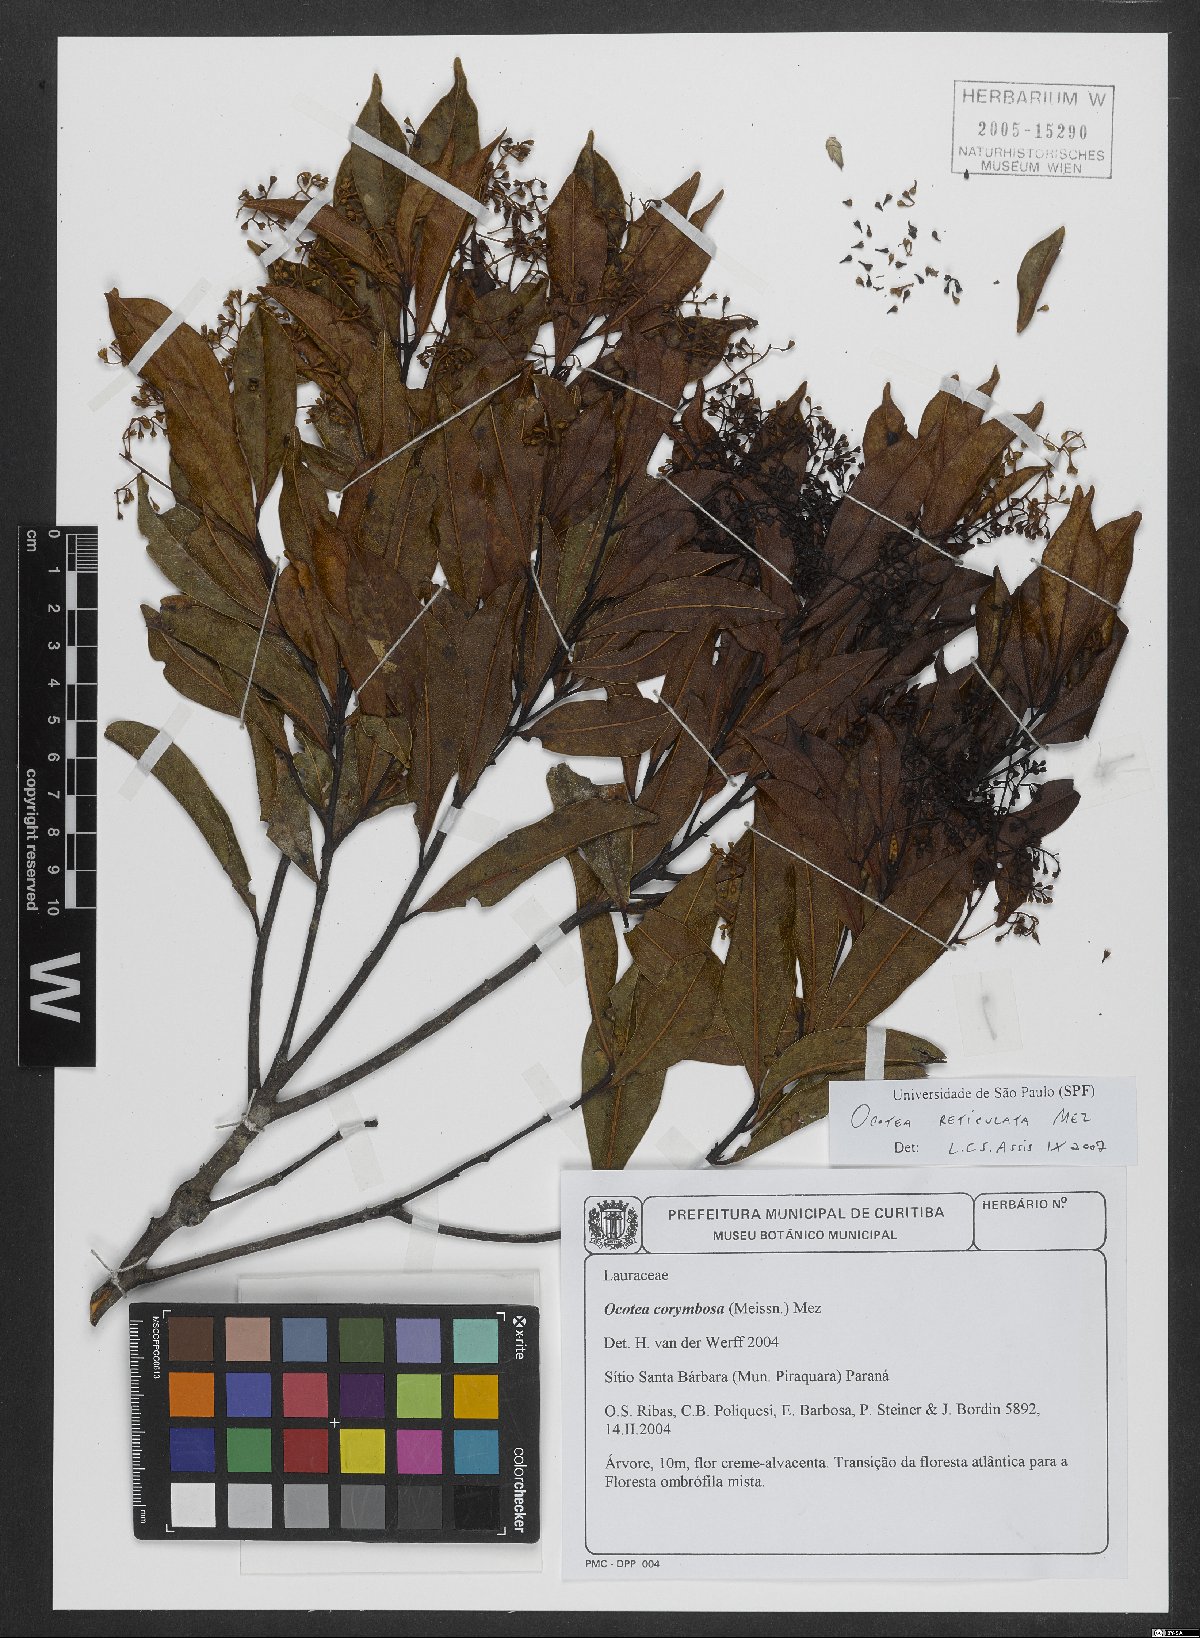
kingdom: Plantae
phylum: Tracheophyta
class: Magnoliopsida
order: Laurales
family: Lauraceae
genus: Mespilodaphne
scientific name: Mespilodaphne corymbosa
